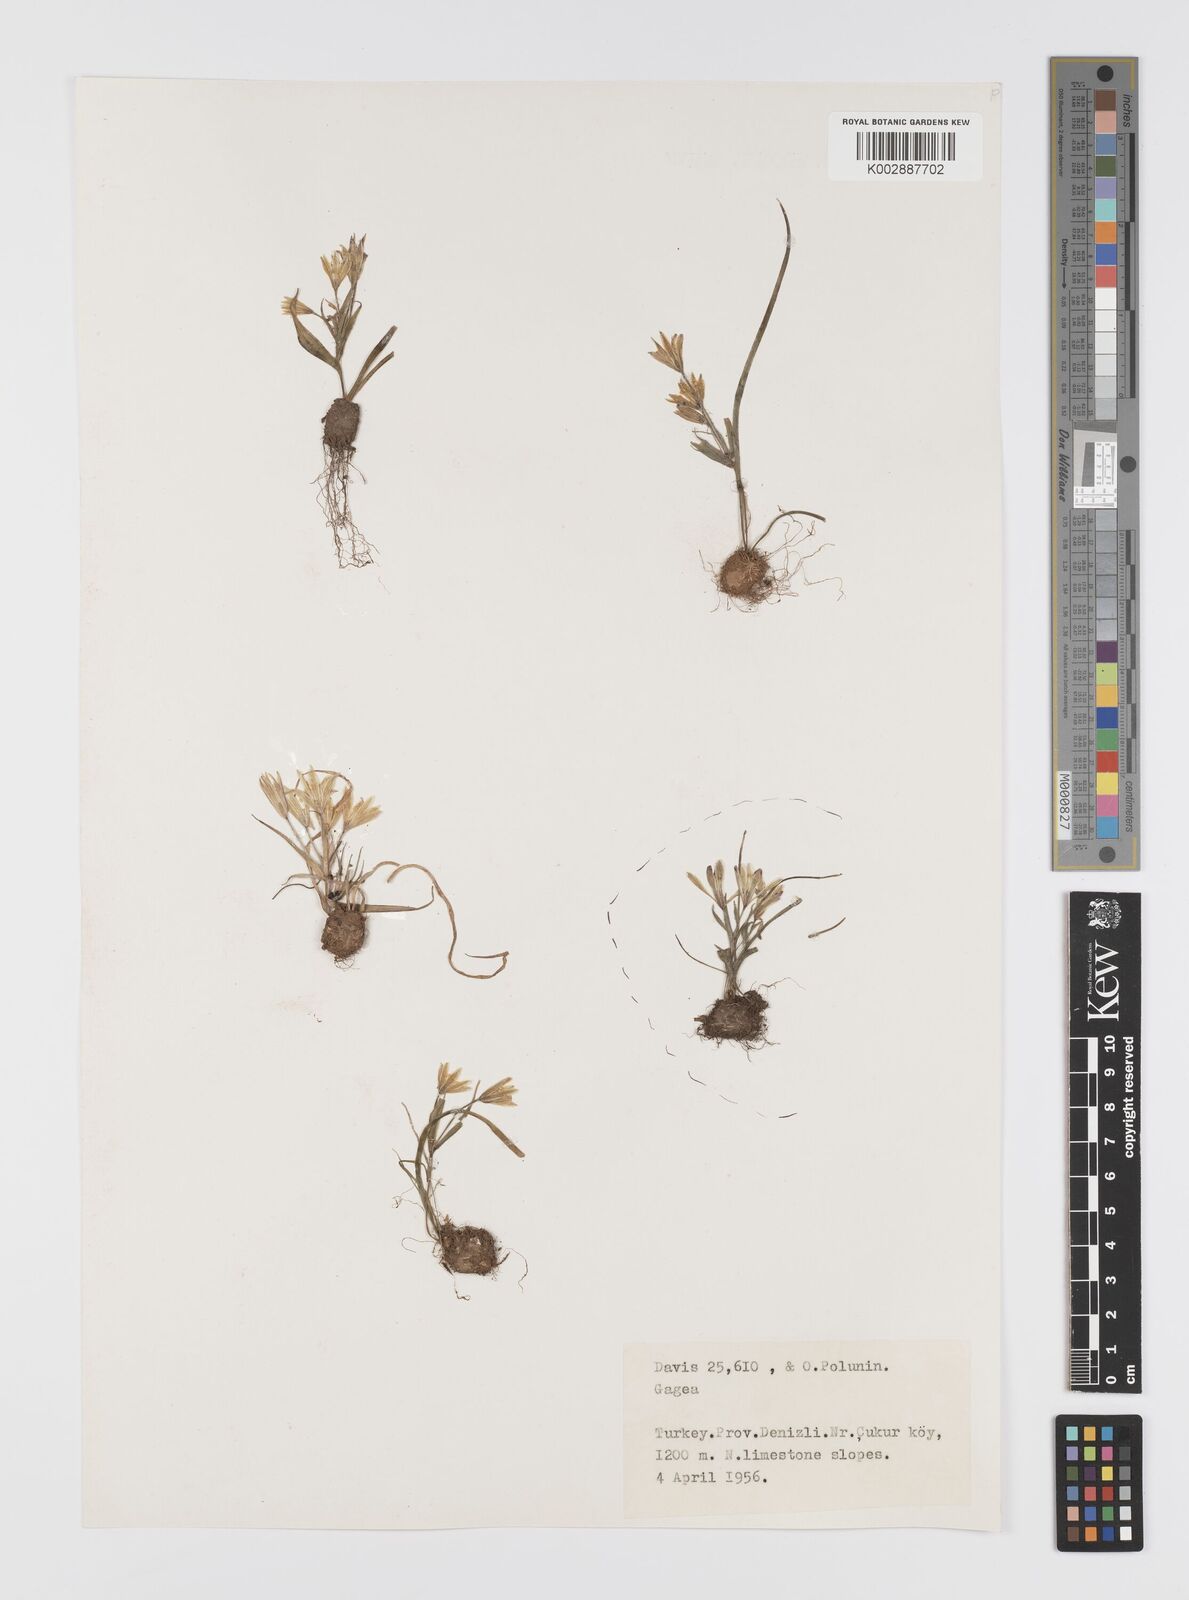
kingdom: Plantae
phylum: Tracheophyta
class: Liliopsida
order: Liliales
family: Liliaceae
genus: Gagea
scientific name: Gagea granatellii
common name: Granatelli’s gagea
